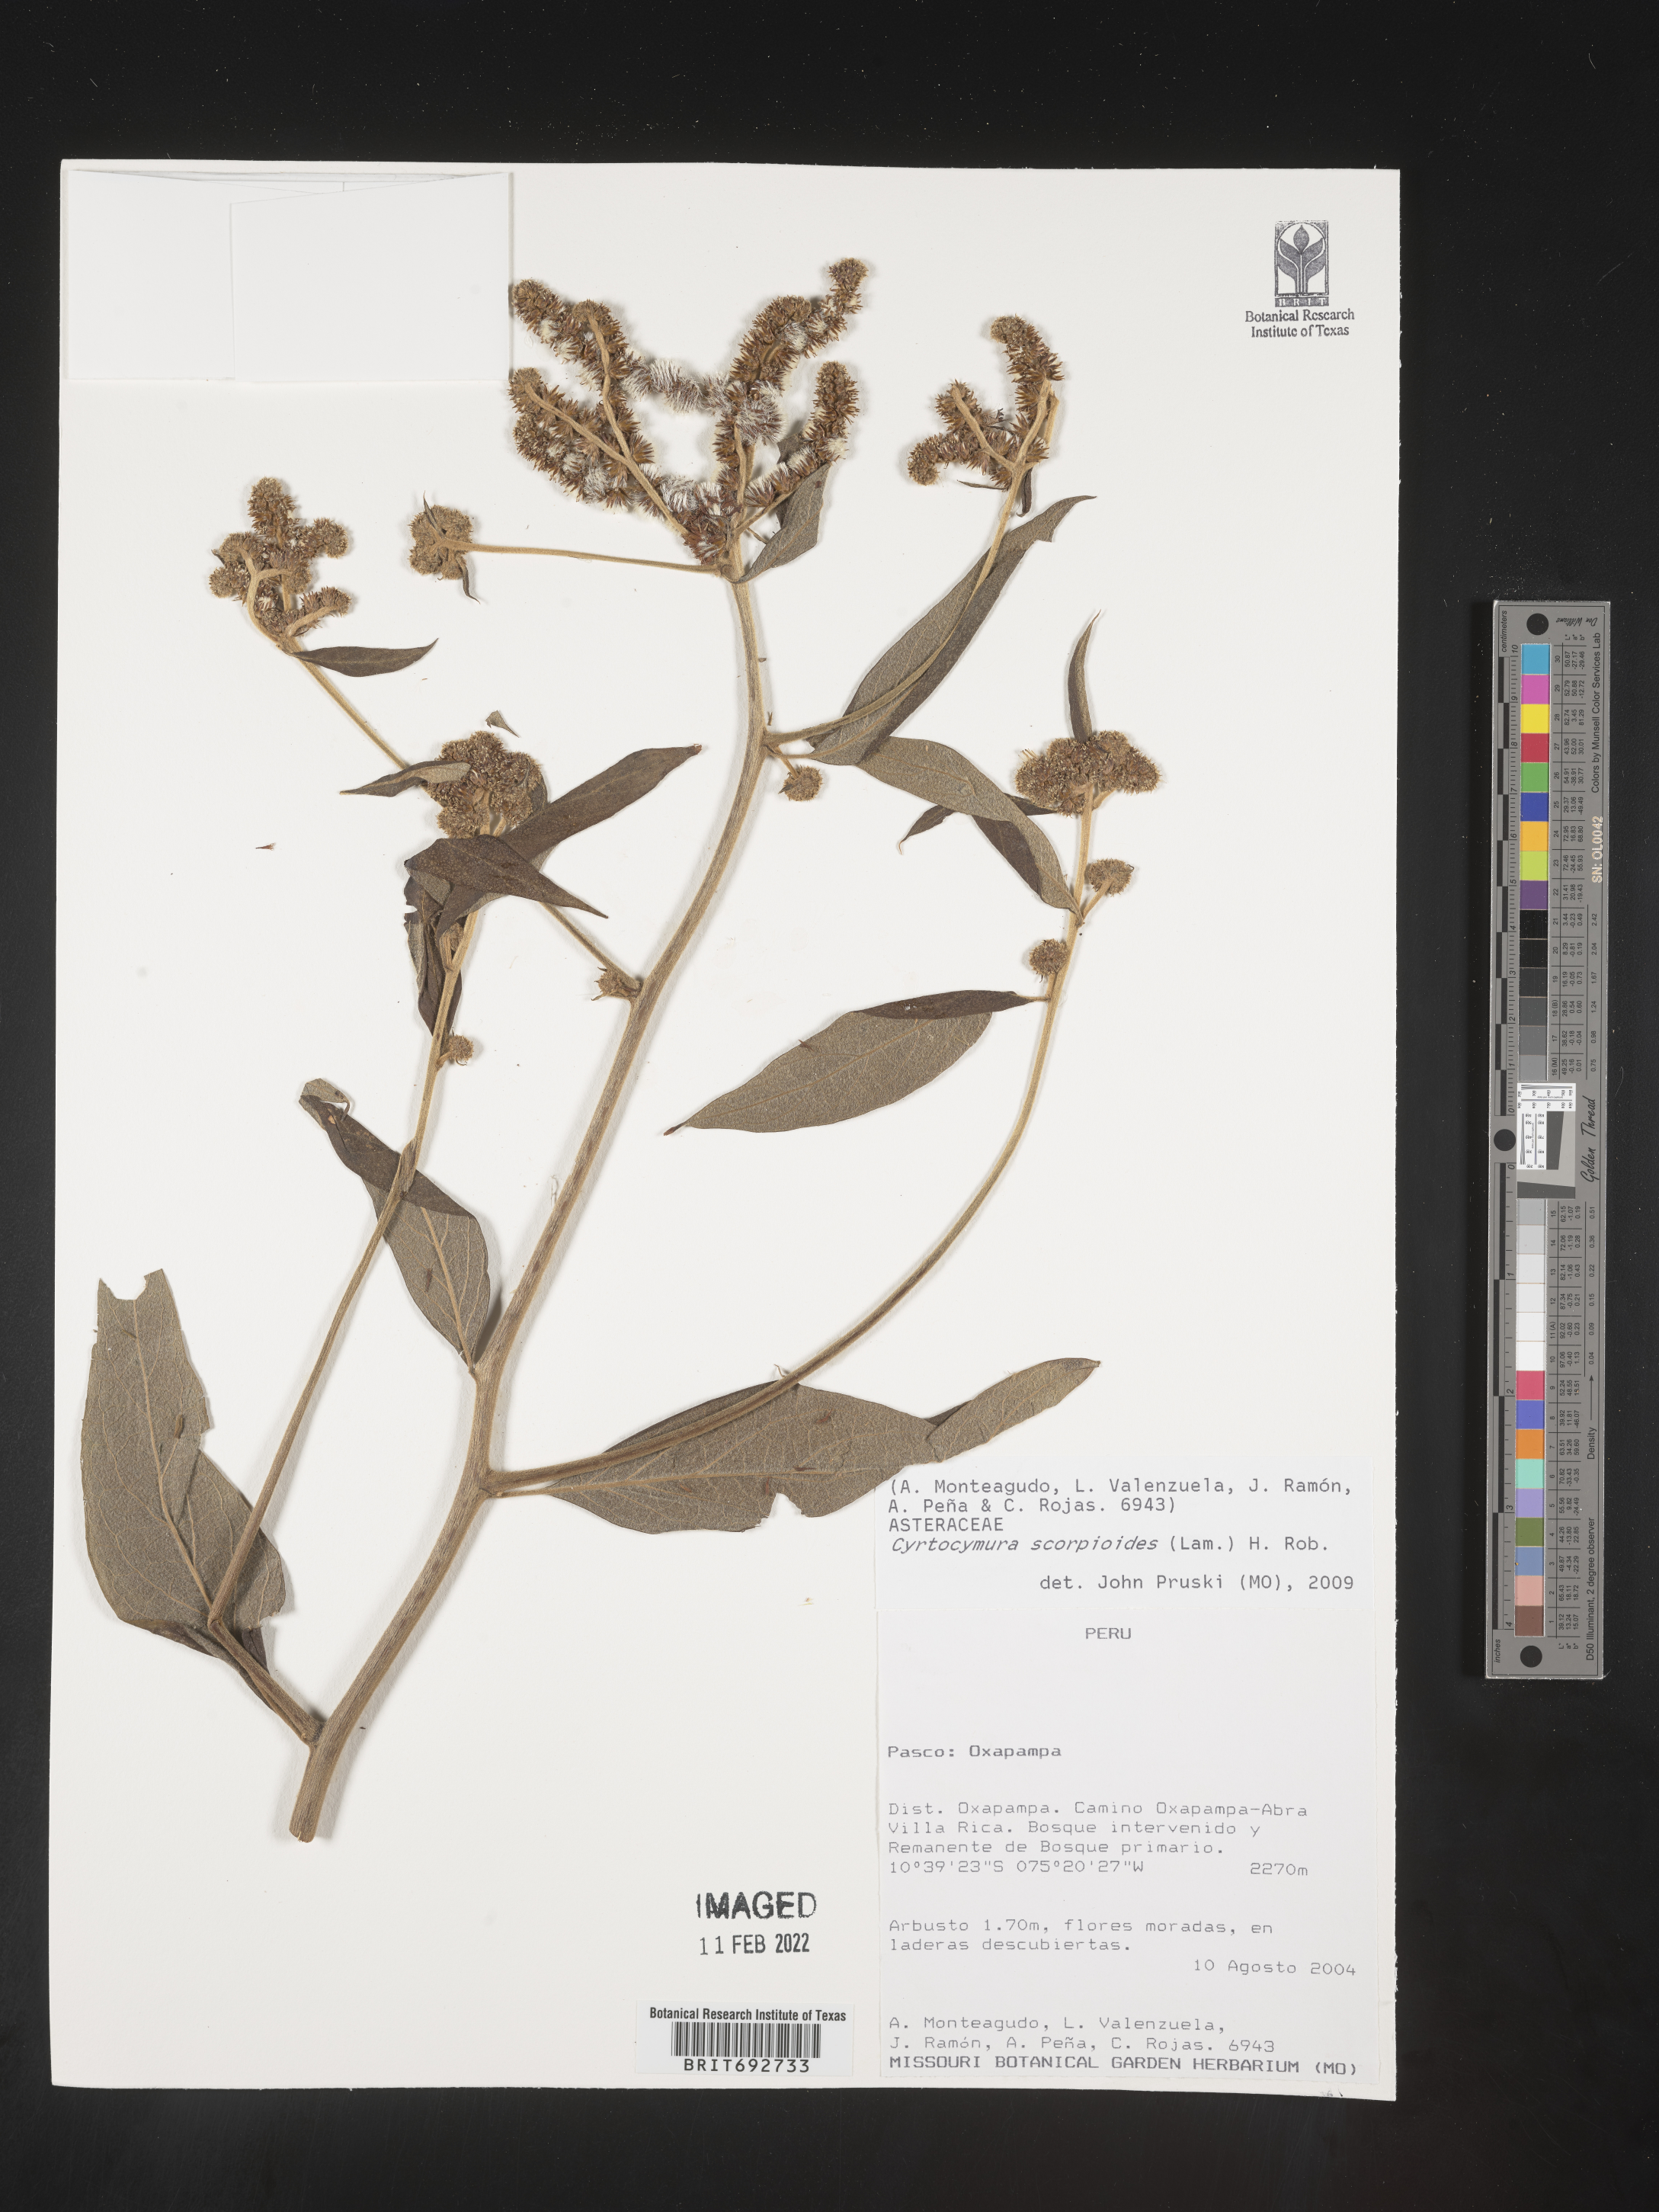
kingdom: Plantae
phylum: Tracheophyta
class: Magnoliopsida
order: Asterales
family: Asteraceae
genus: Cyrtocymura
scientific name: Cyrtocymura
